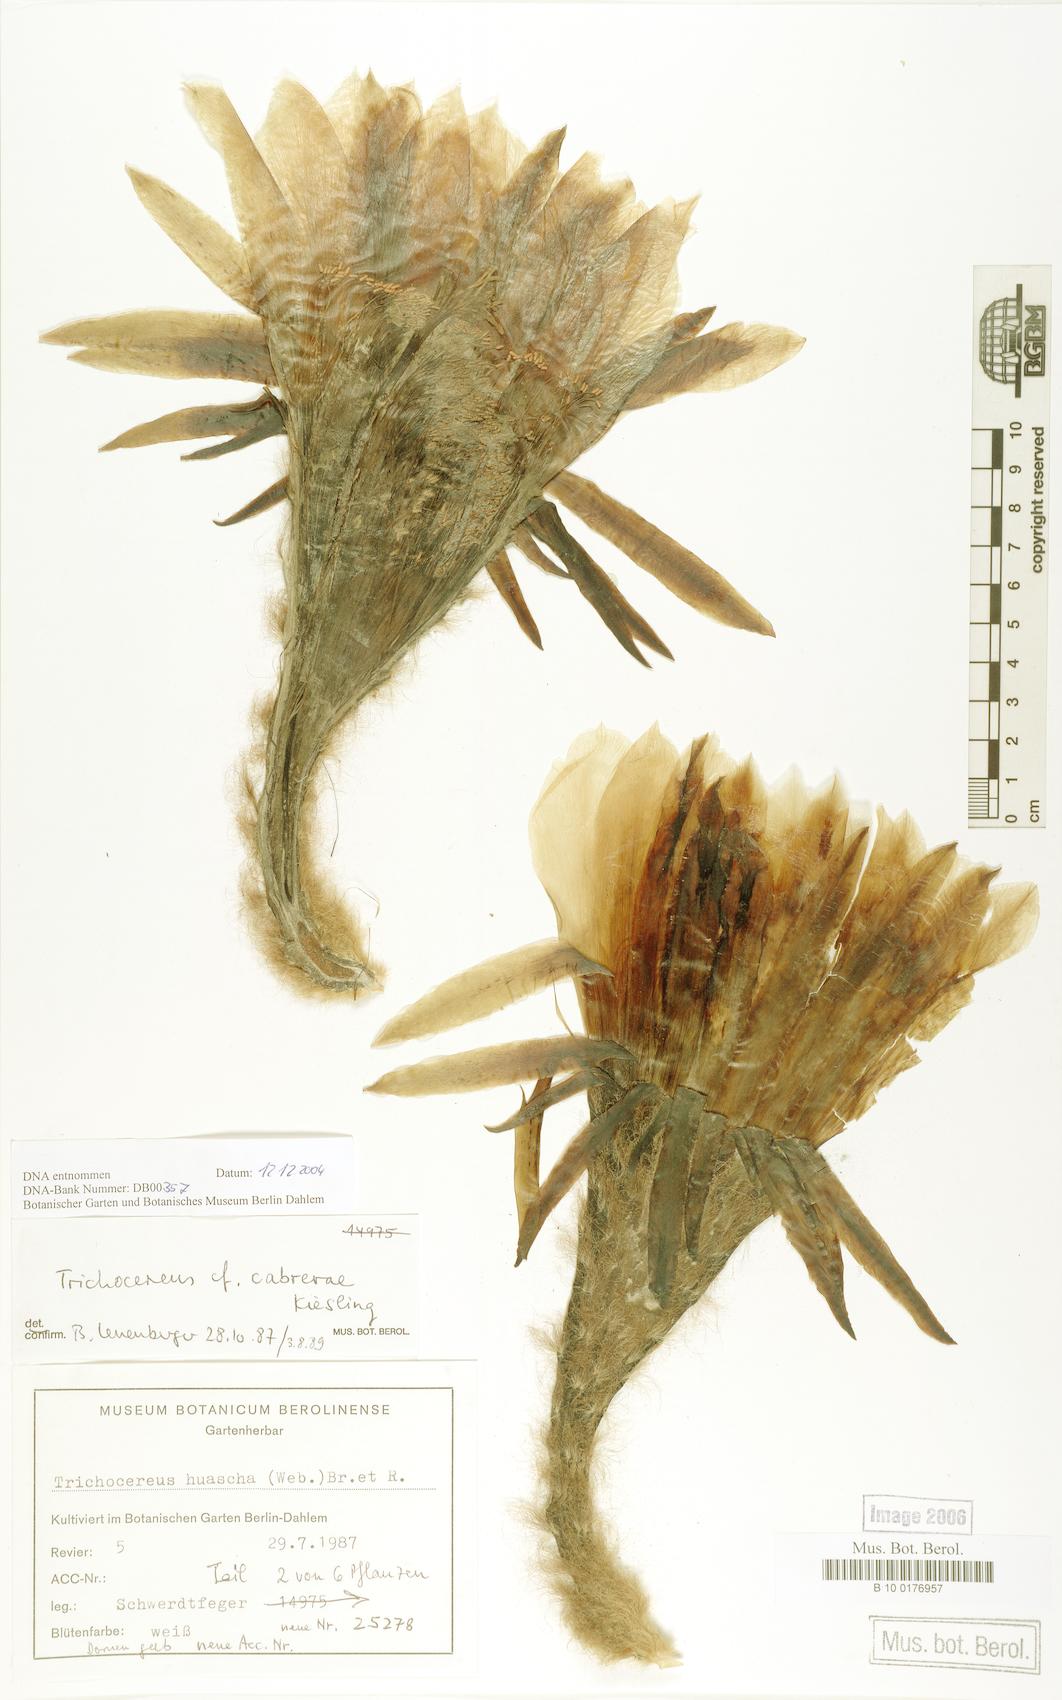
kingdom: Plantae
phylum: Tracheophyta
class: Magnoliopsida
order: Caryophyllales
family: Cactaceae
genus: Echinopsis
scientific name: Echinopsis cabrerae
